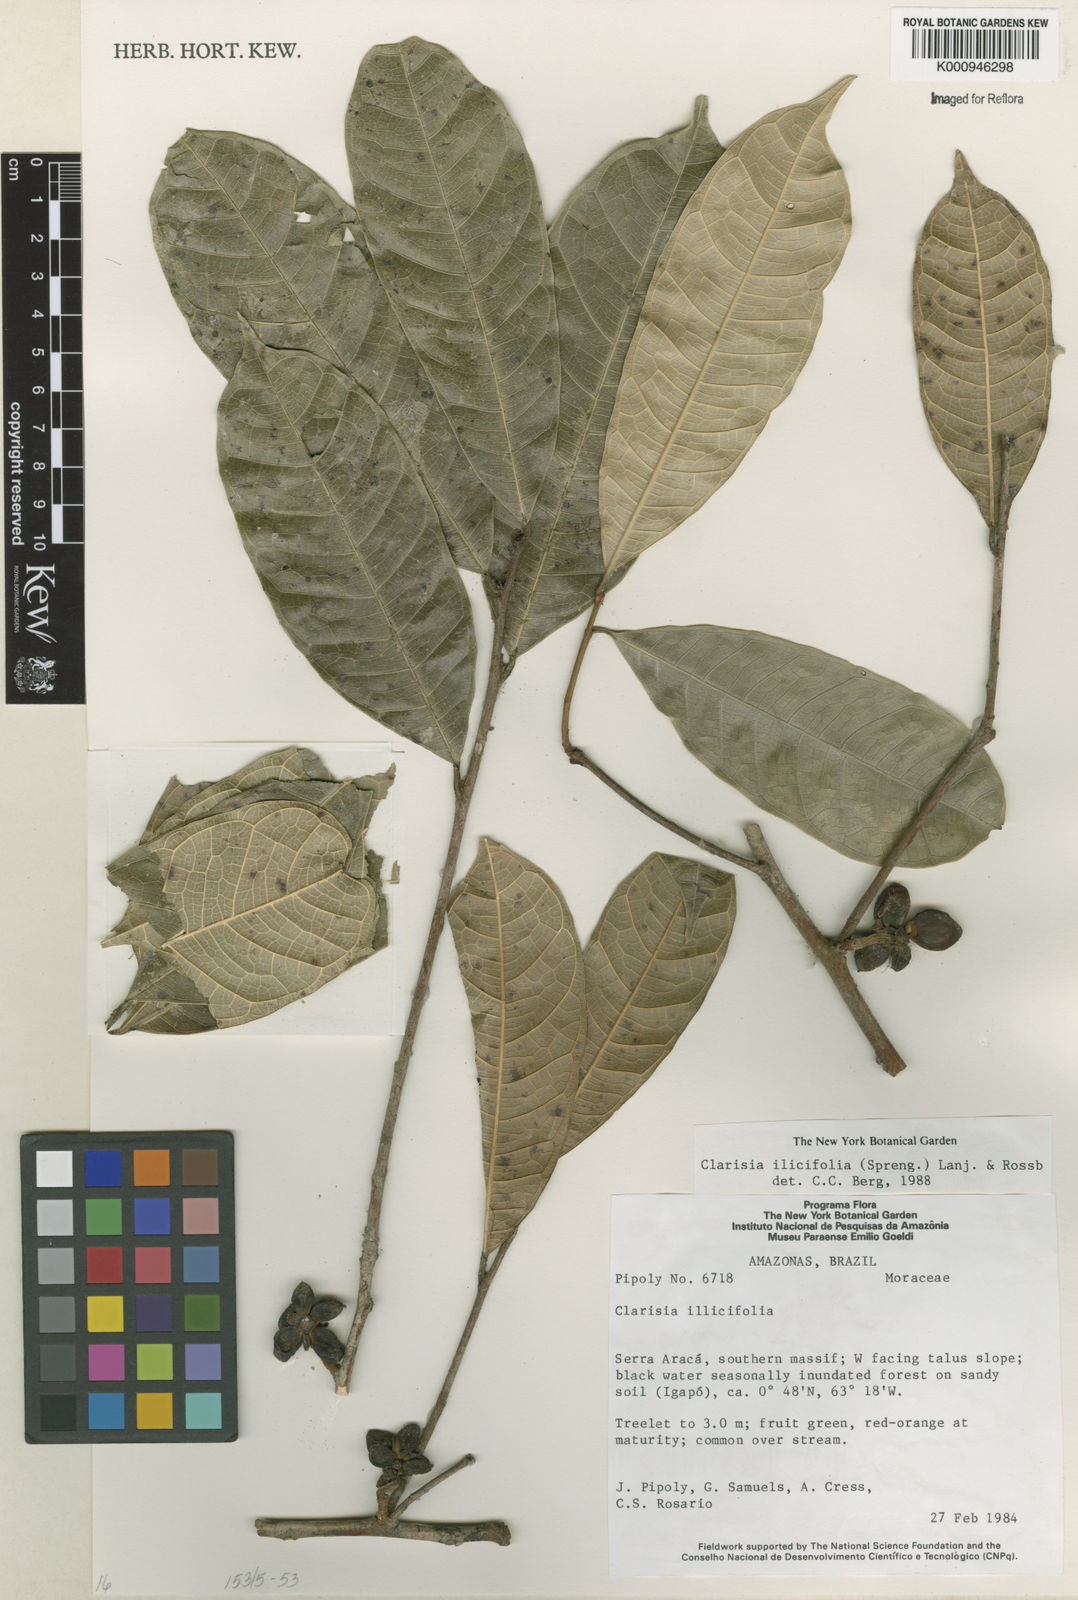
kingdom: Plantae
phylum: Tracheophyta
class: Magnoliopsida
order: Rosales
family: Moraceae
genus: Clarisia
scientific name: Clarisia ilicifolia
